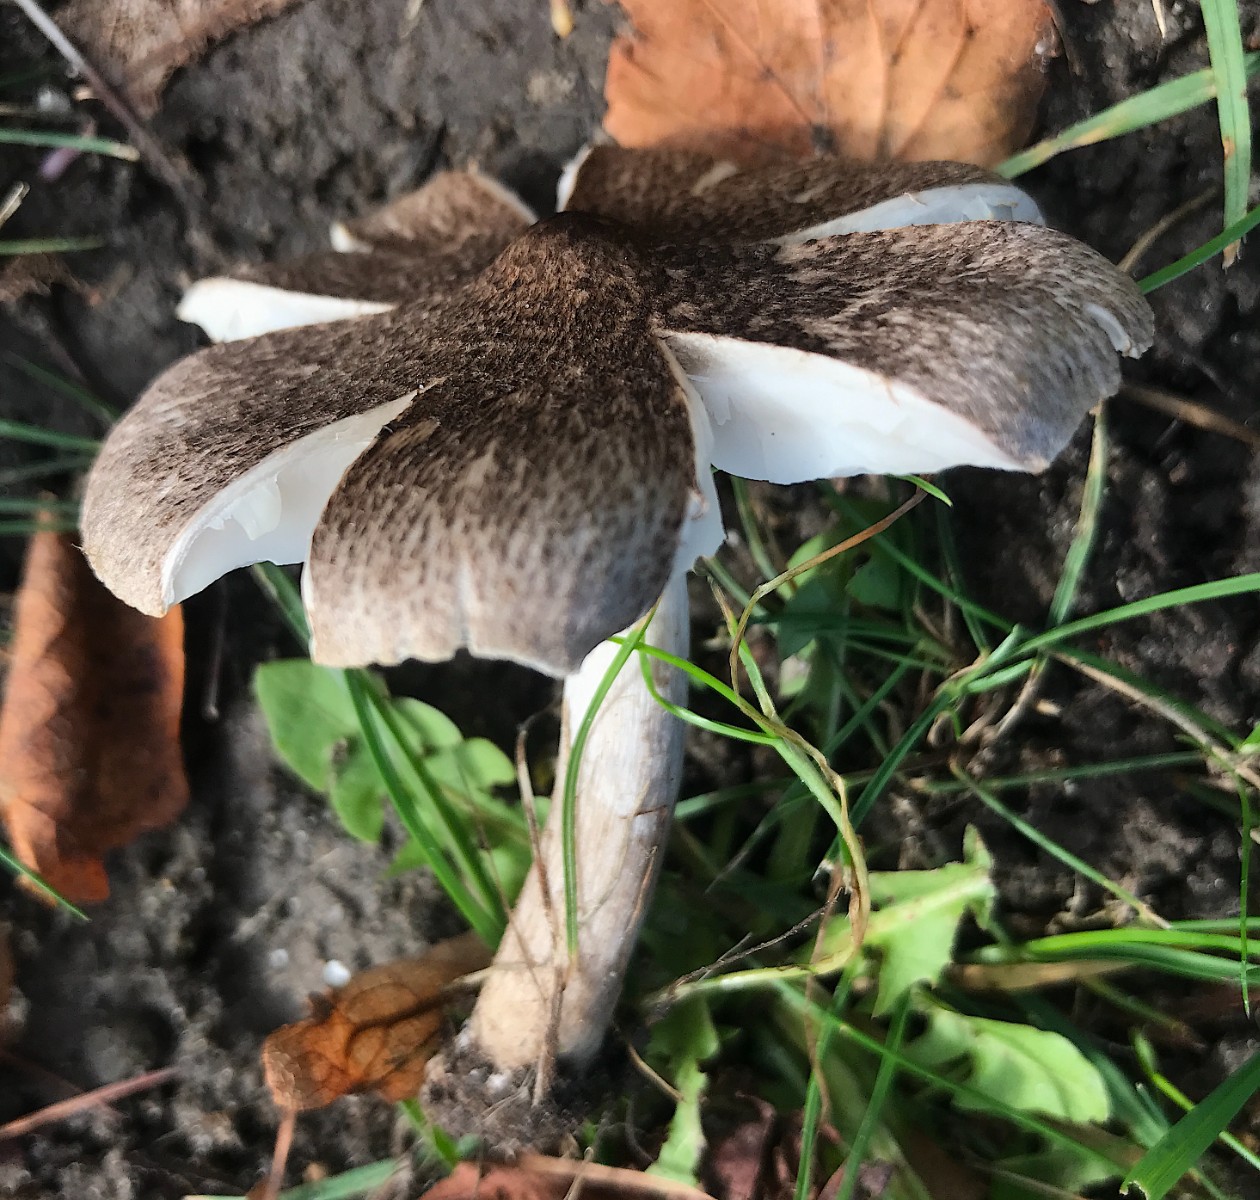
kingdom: Fungi
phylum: Basidiomycota
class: Agaricomycetes
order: Agaricales
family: Tricholomataceae
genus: Tricholoma
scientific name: Tricholoma scalpturatum
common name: gulplettet ridderhat
